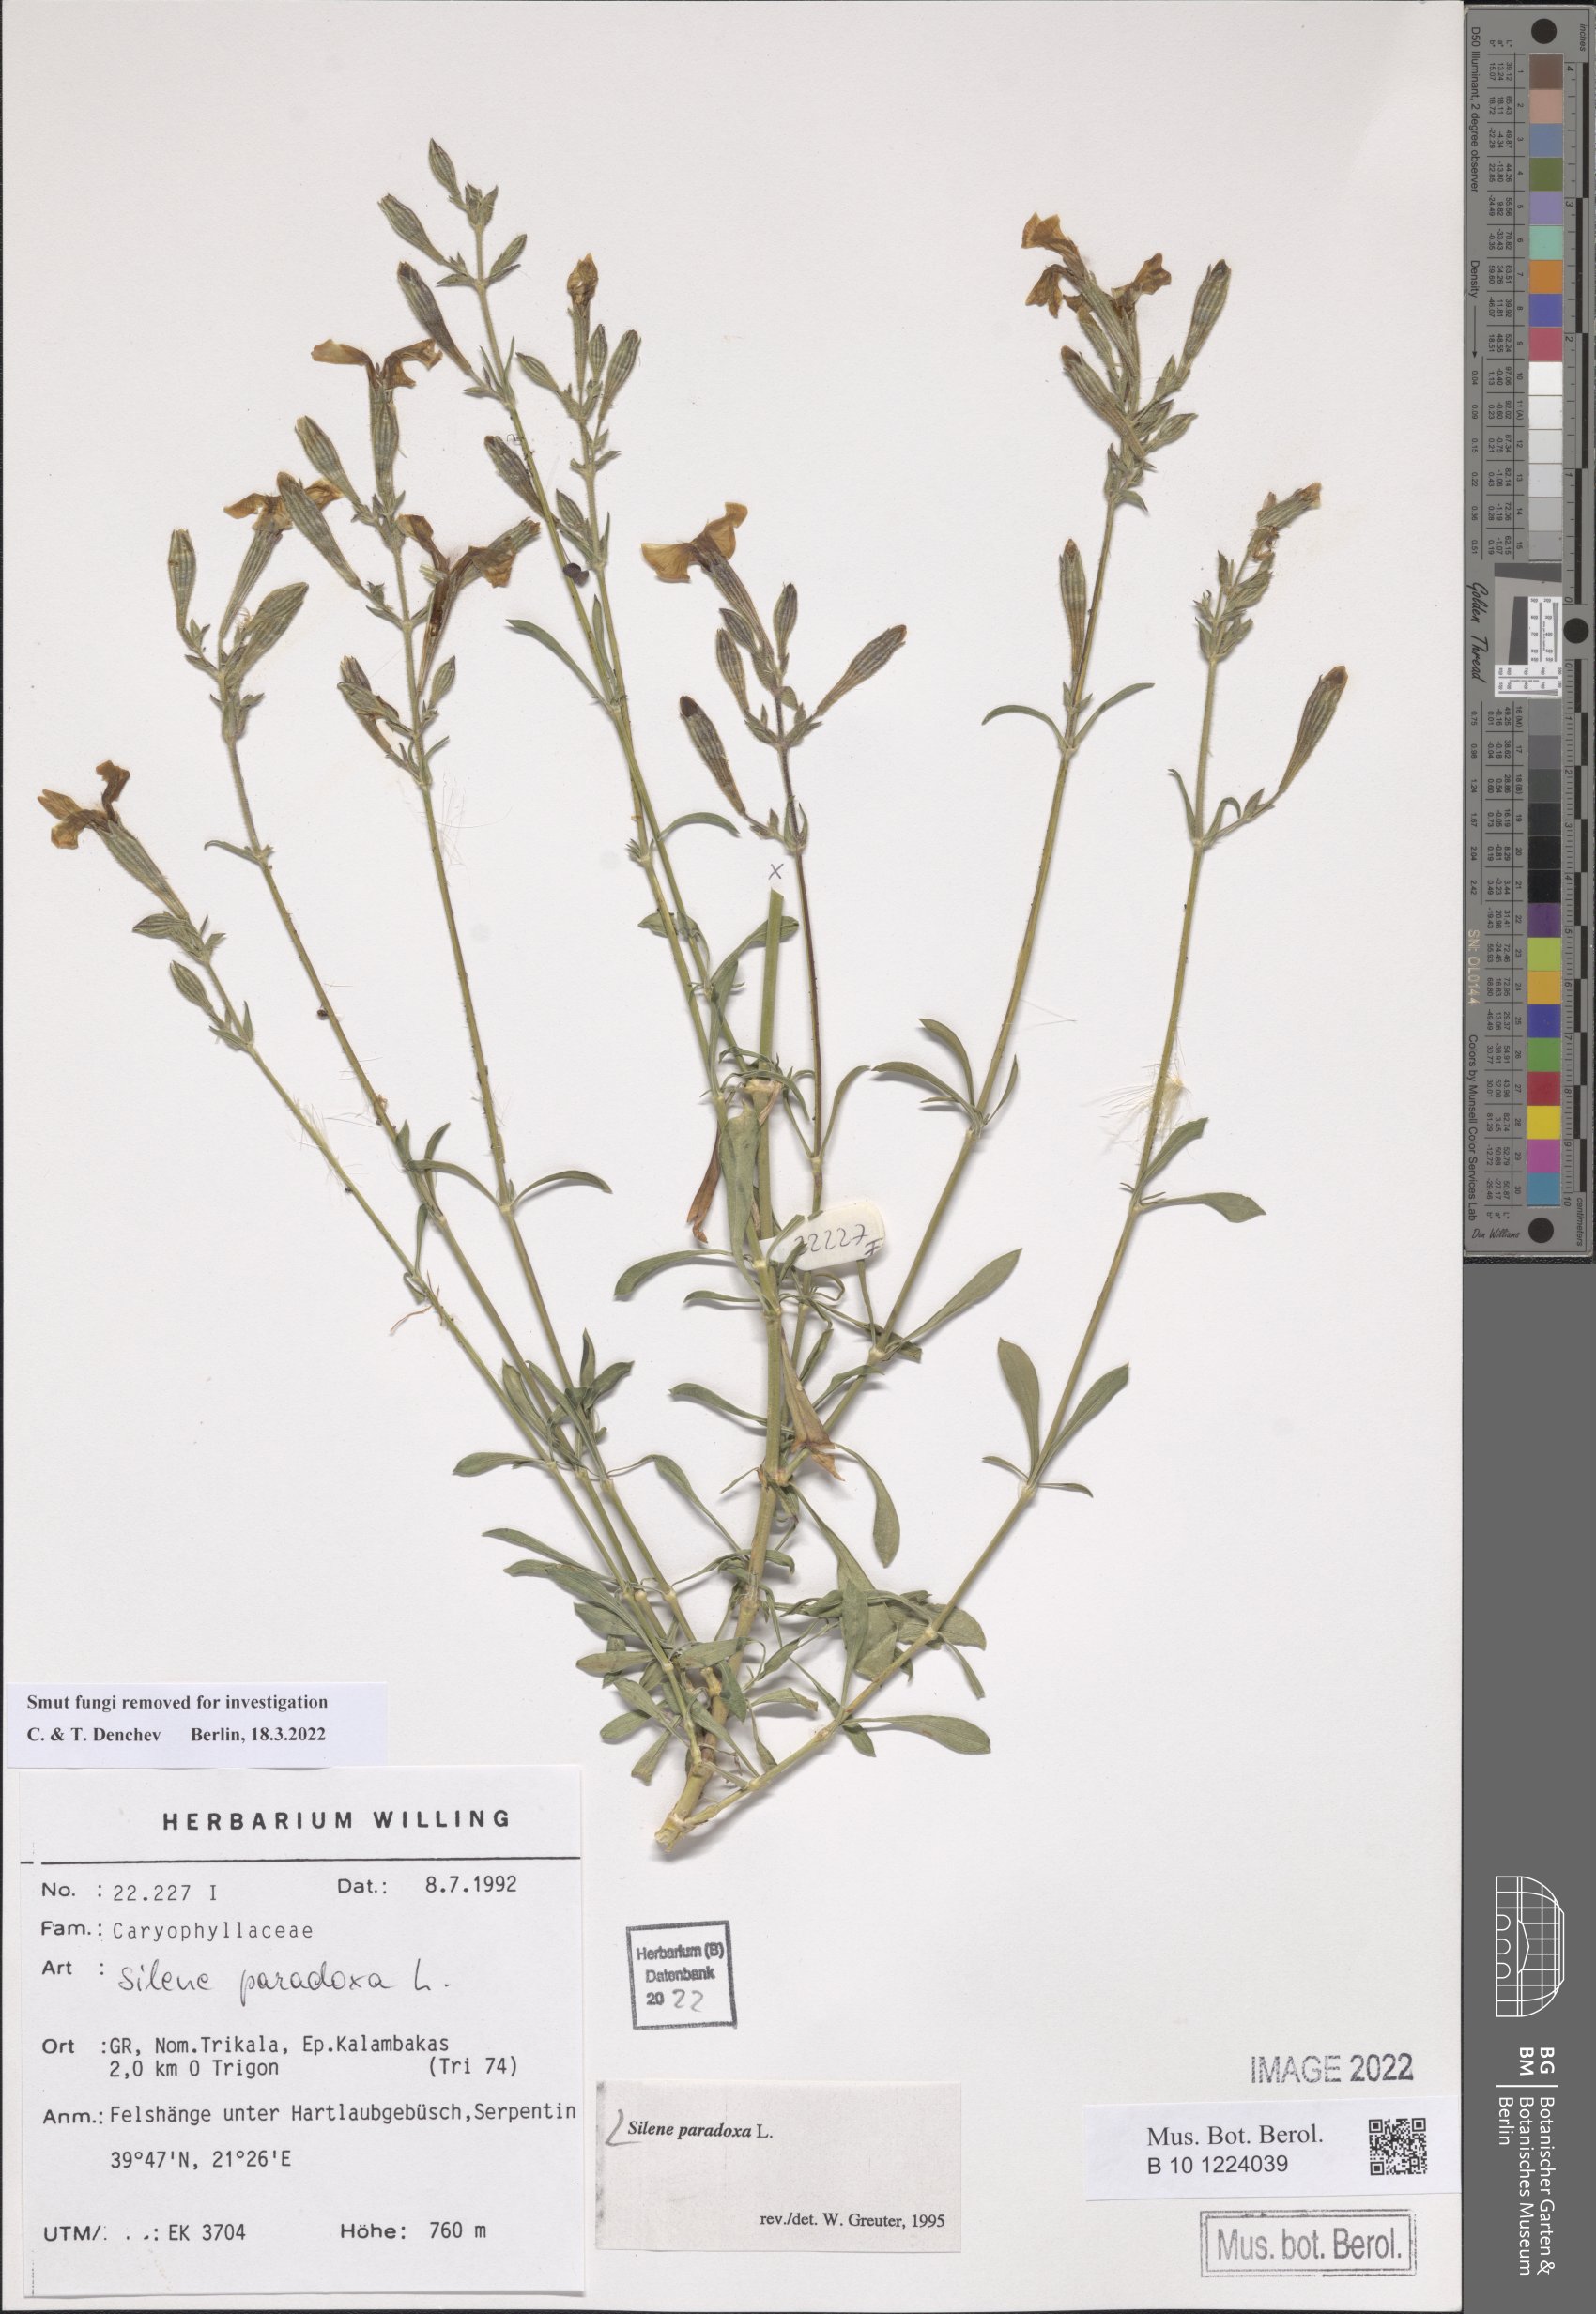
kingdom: Plantae
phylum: Tracheophyta
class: Magnoliopsida
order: Caryophyllales
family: Caryophyllaceae
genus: Silene
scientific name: Silene paradoxa
